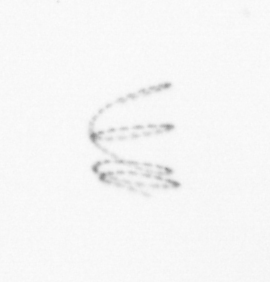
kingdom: Chromista
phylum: Ochrophyta
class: Bacillariophyceae
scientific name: Bacillariophyceae
